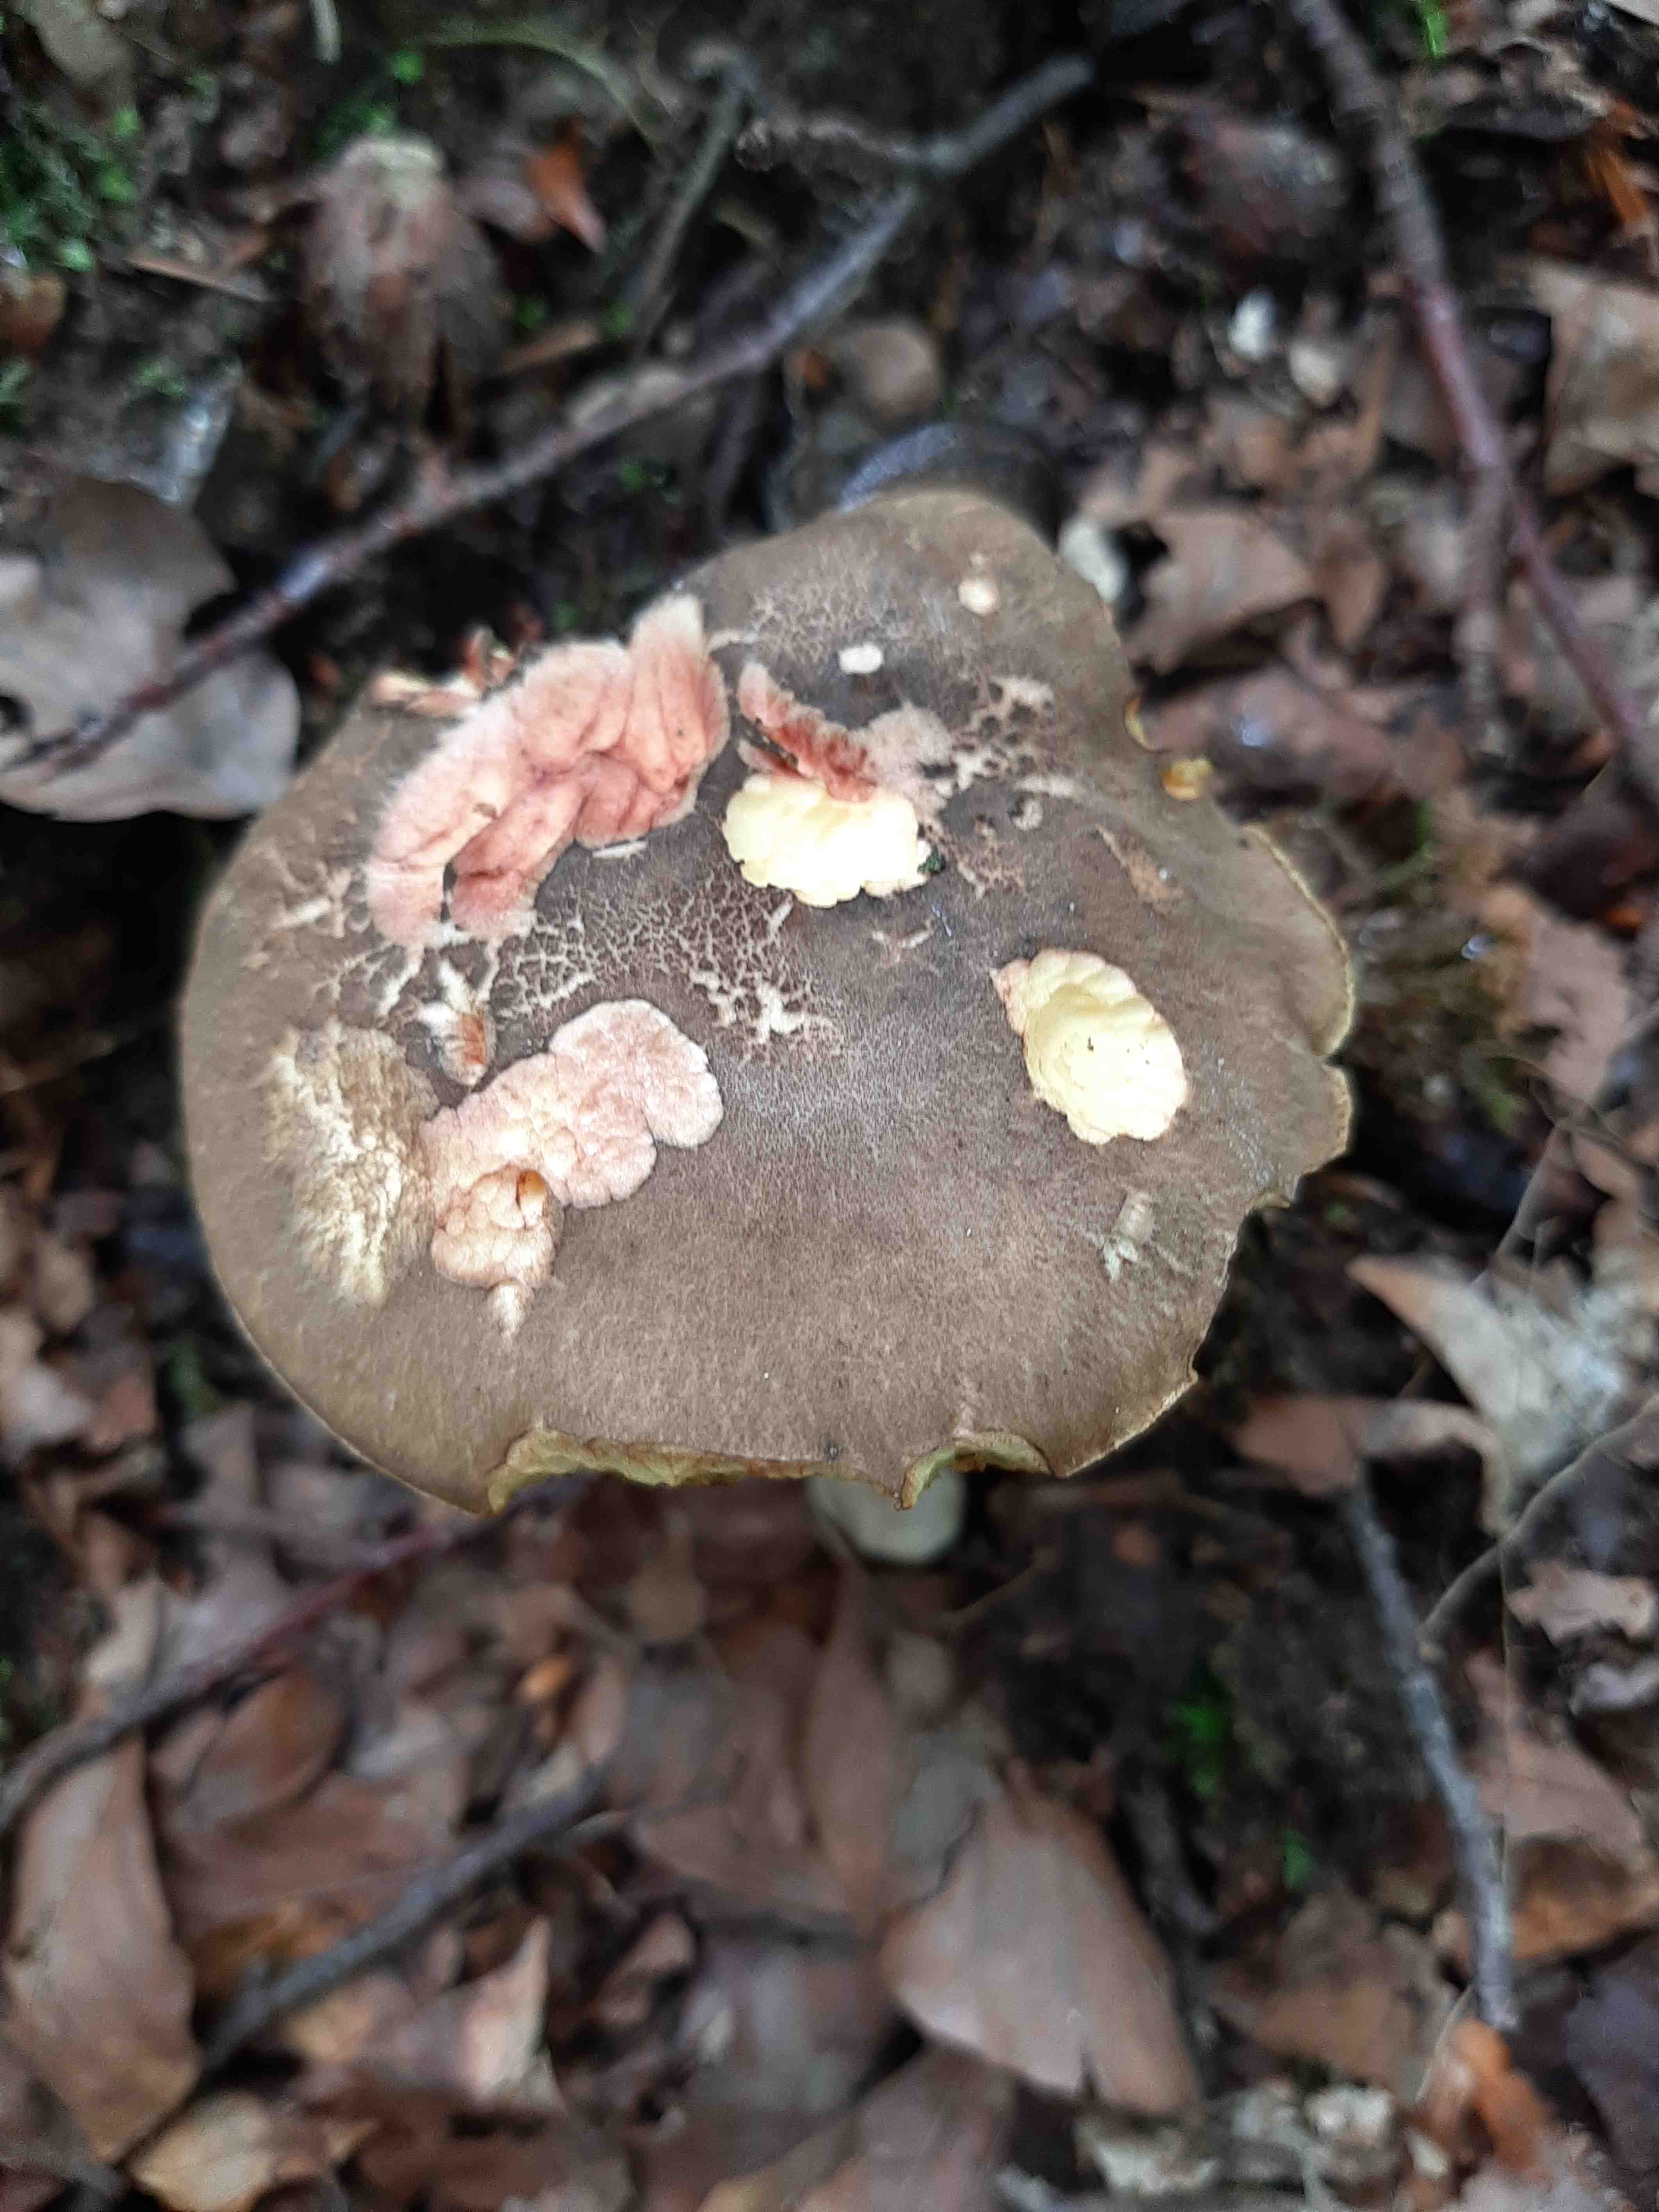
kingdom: Fungi
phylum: Basidiomycota
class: Agaricomycetes
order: Boletales
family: Boletaceae
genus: Xerocomellus
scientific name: Xerocomellus chrysenteron
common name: rødsprukken rørhat
